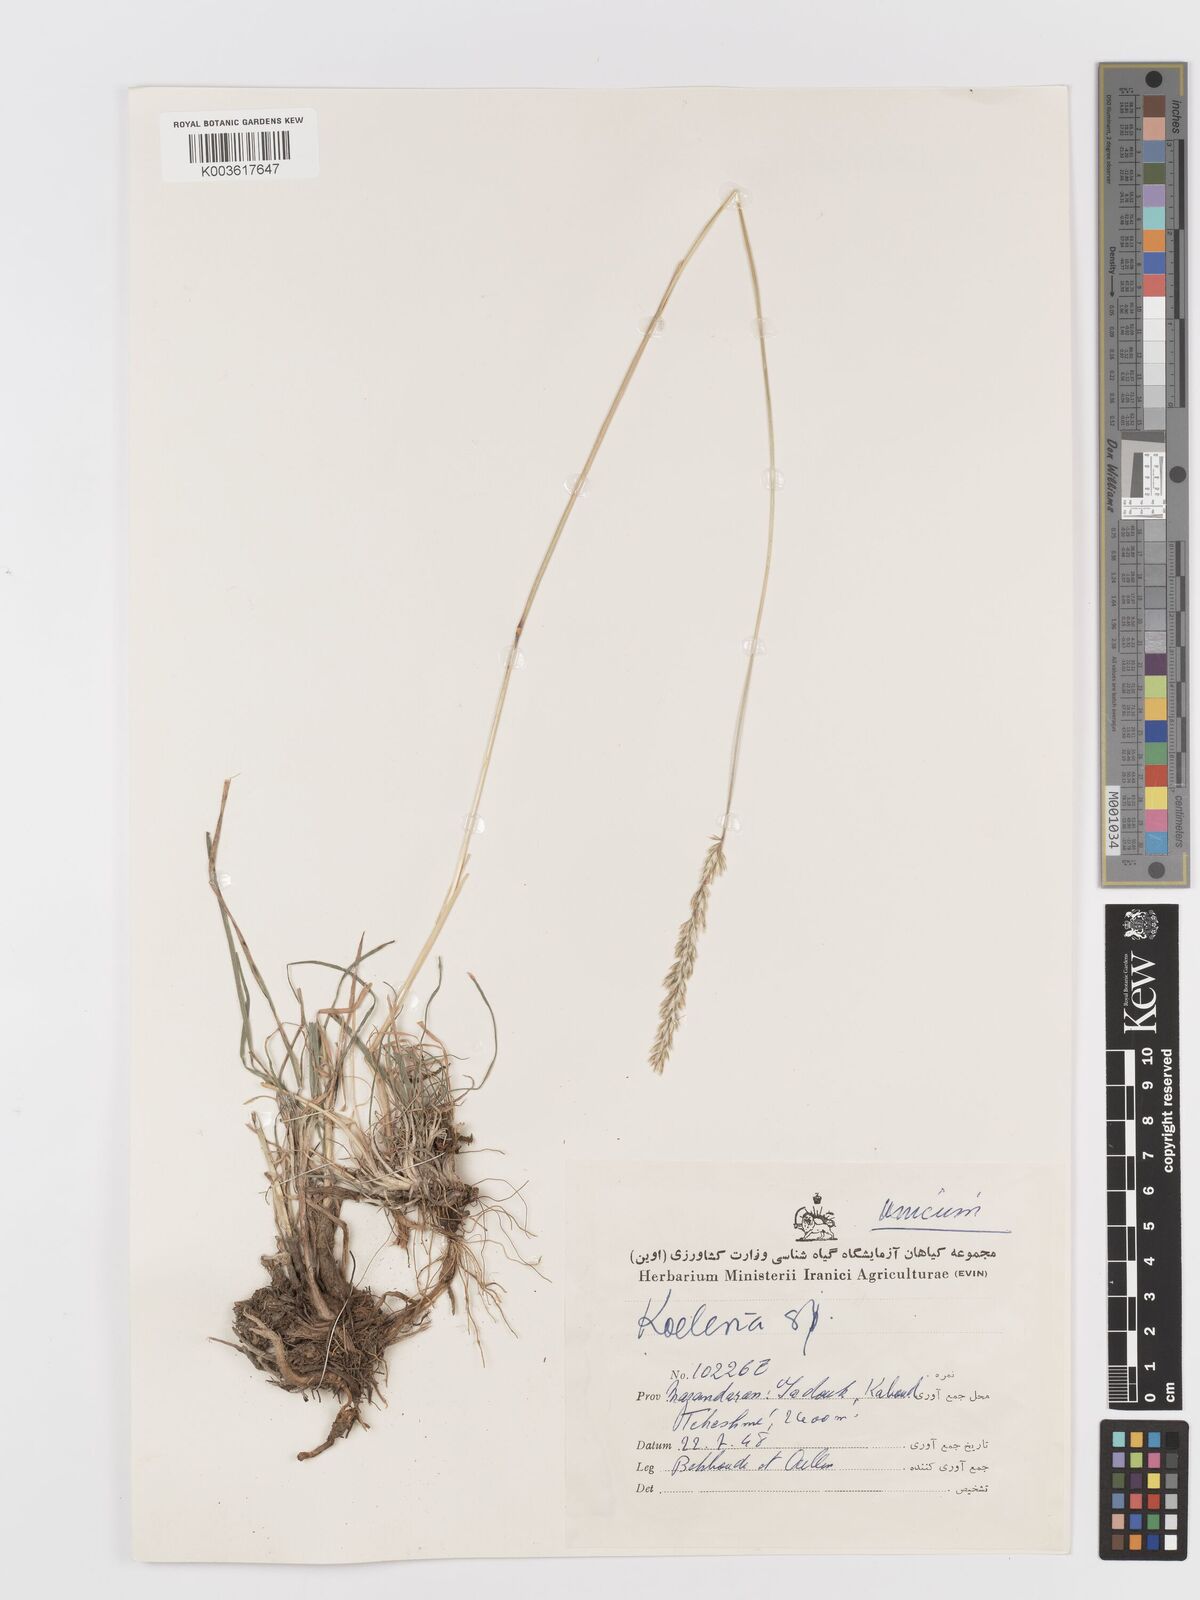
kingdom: Plantae
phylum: Tracheophyta
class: Liliopsida
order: Poales
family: Poaceae
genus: Koeleria
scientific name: Koeleria
